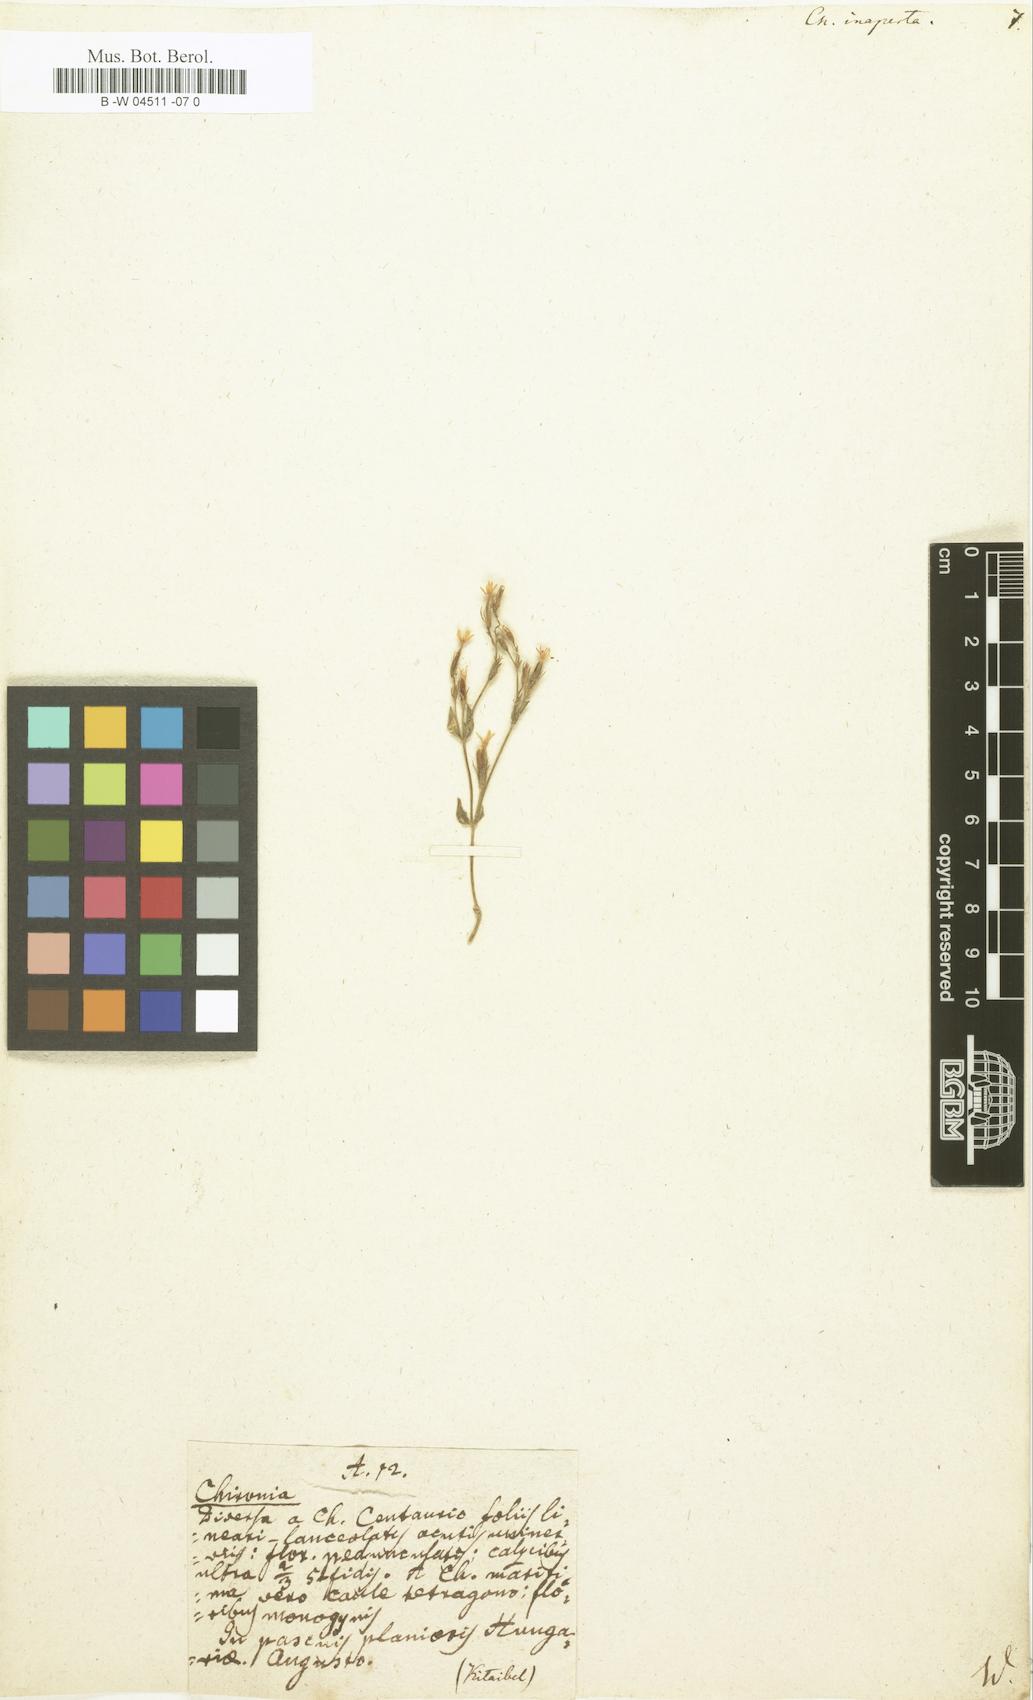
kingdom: Plantae
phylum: Tracheophyta
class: Magnoliopsida
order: Gentianales
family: Gentianaceae
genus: Centaurium
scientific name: Centaurium pulchellum
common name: Lesser centaury
